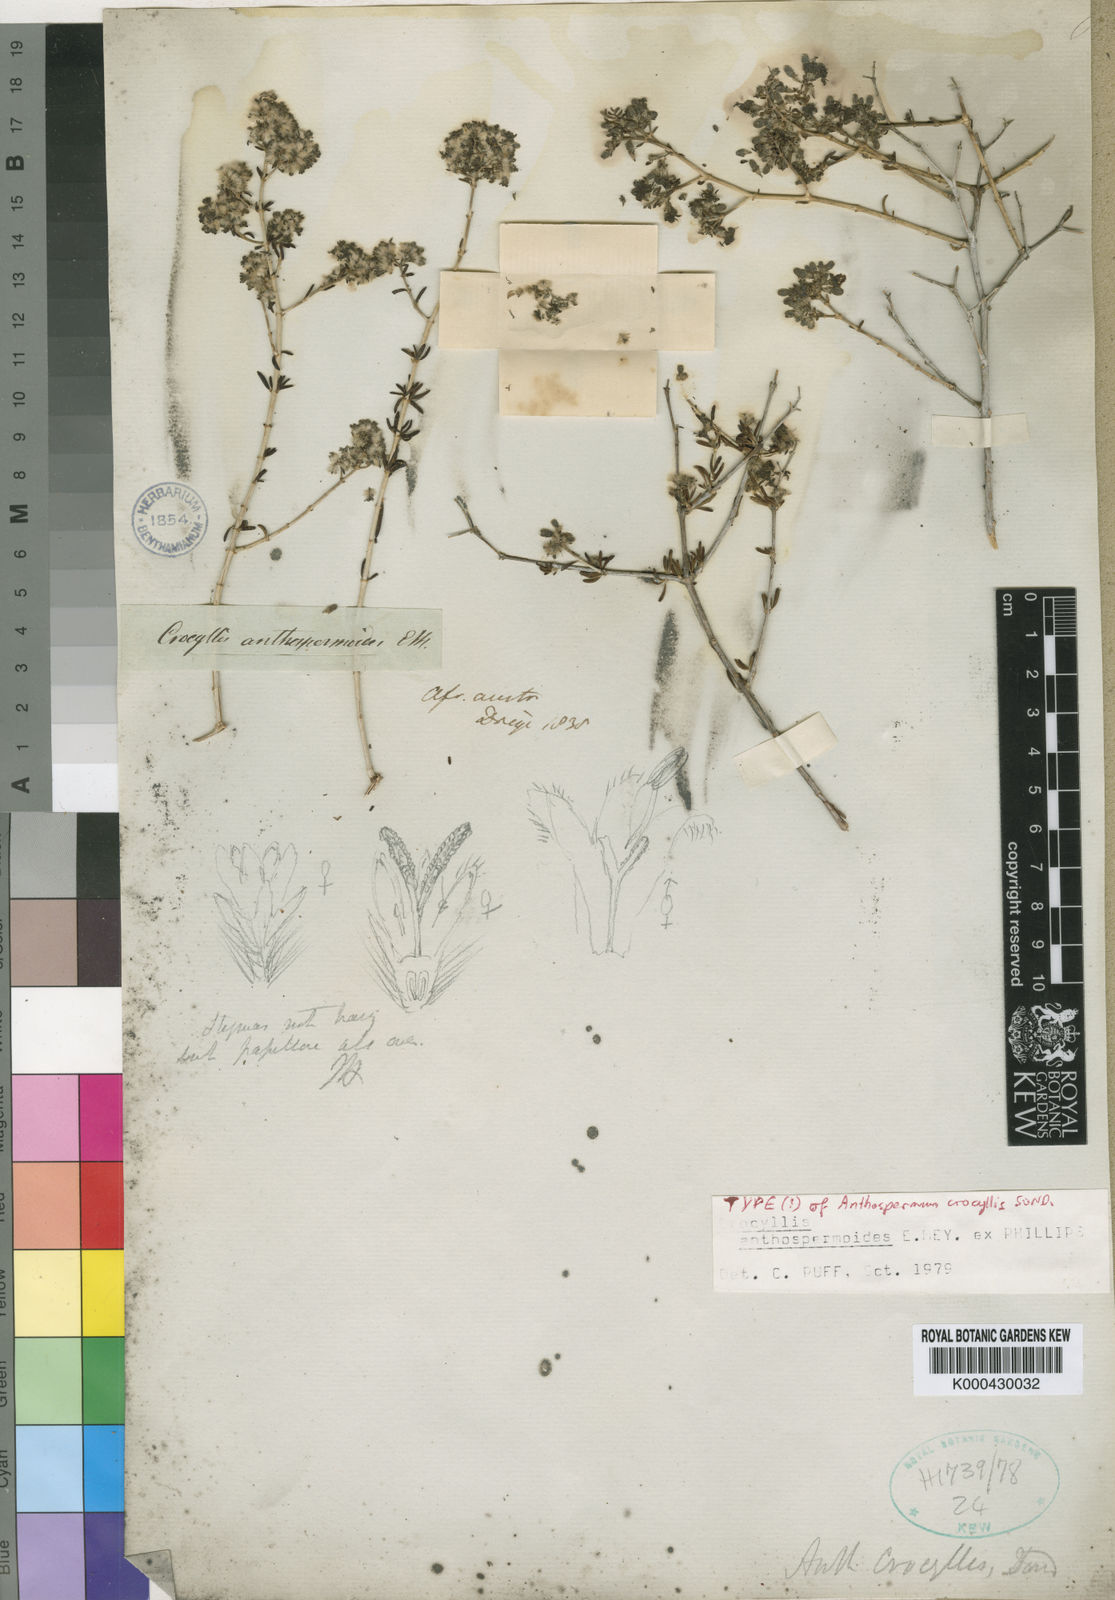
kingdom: Plantae
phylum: Tracheophyta
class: Magnoliopsida
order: Gentianales
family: Rubiaceae
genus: Plocama
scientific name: Plocama crocyllis
